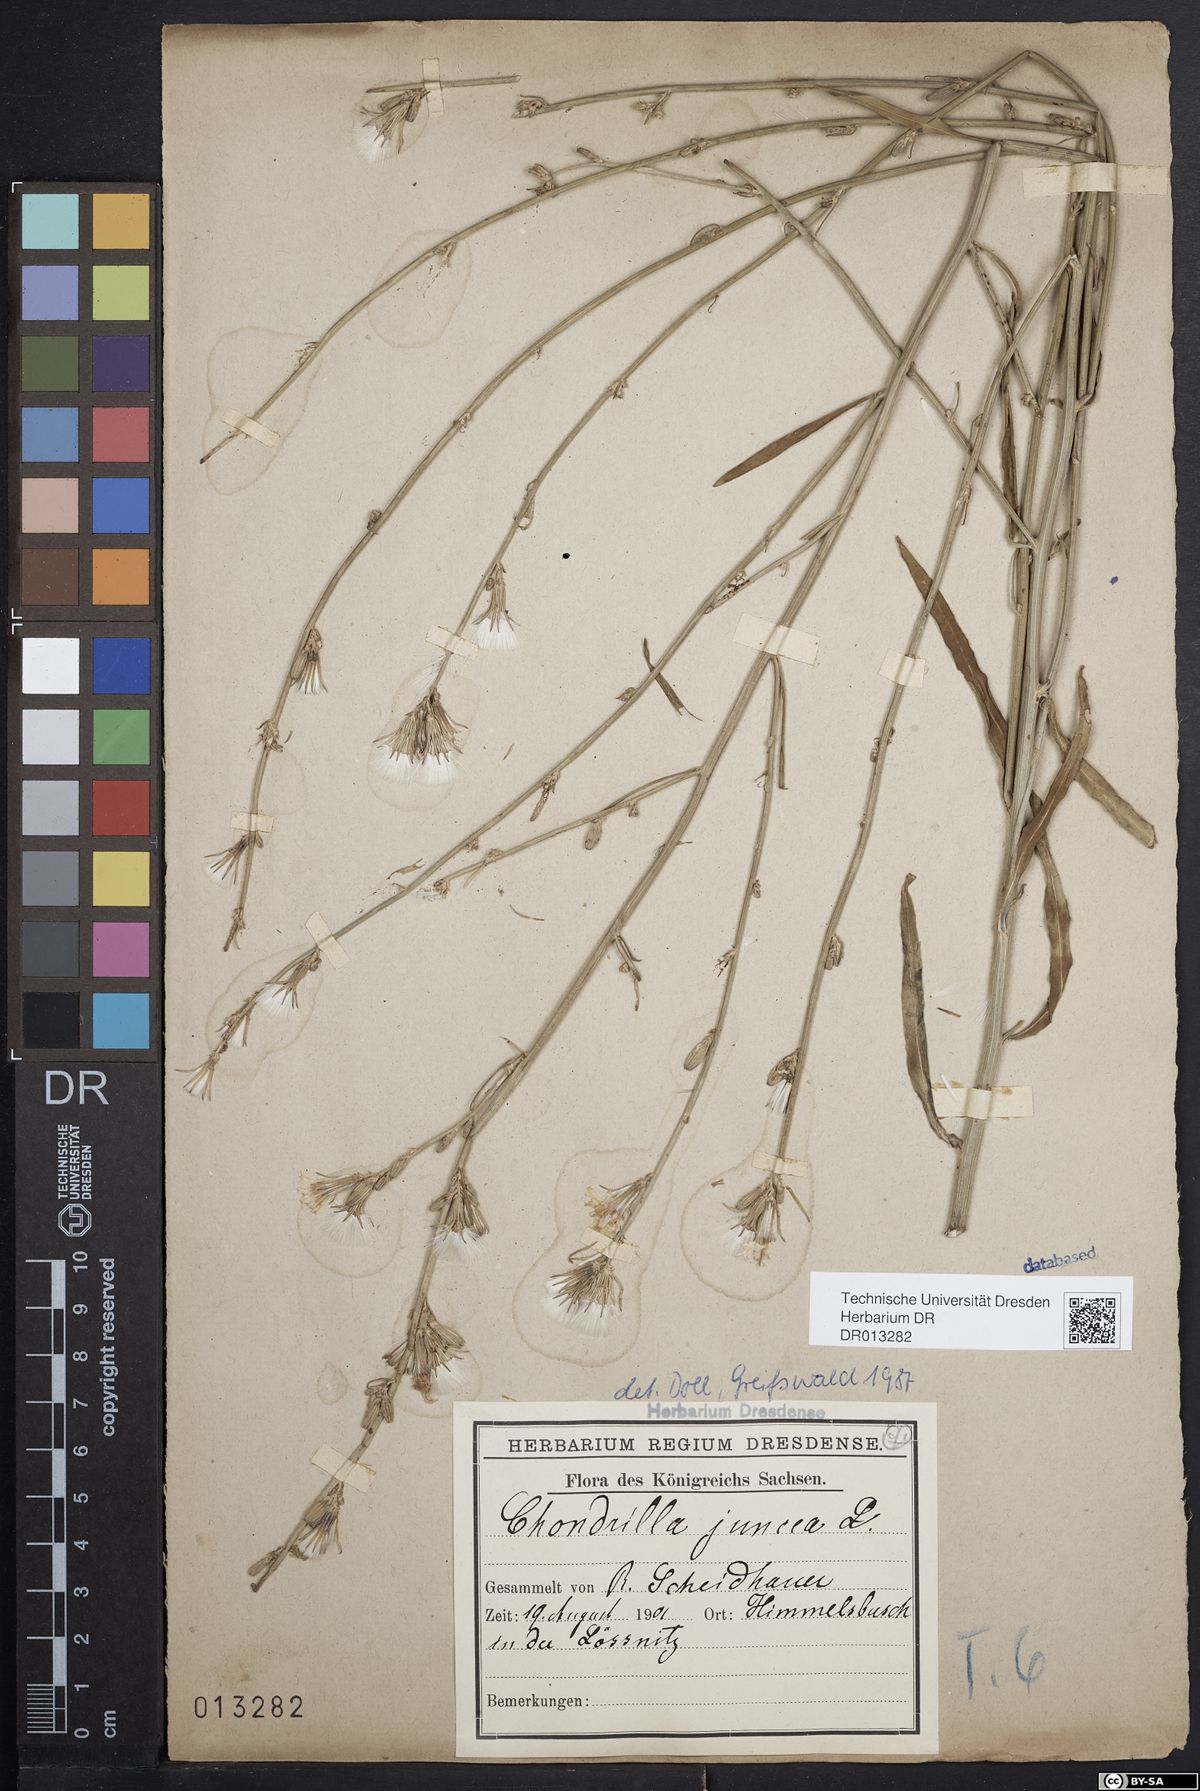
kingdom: Plantae
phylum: Tracheophyta
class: Magnoliopsida
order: Asterales
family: Asteraceae
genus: Chondrilla
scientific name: Chondrilla juncea
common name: Skeleton weed
